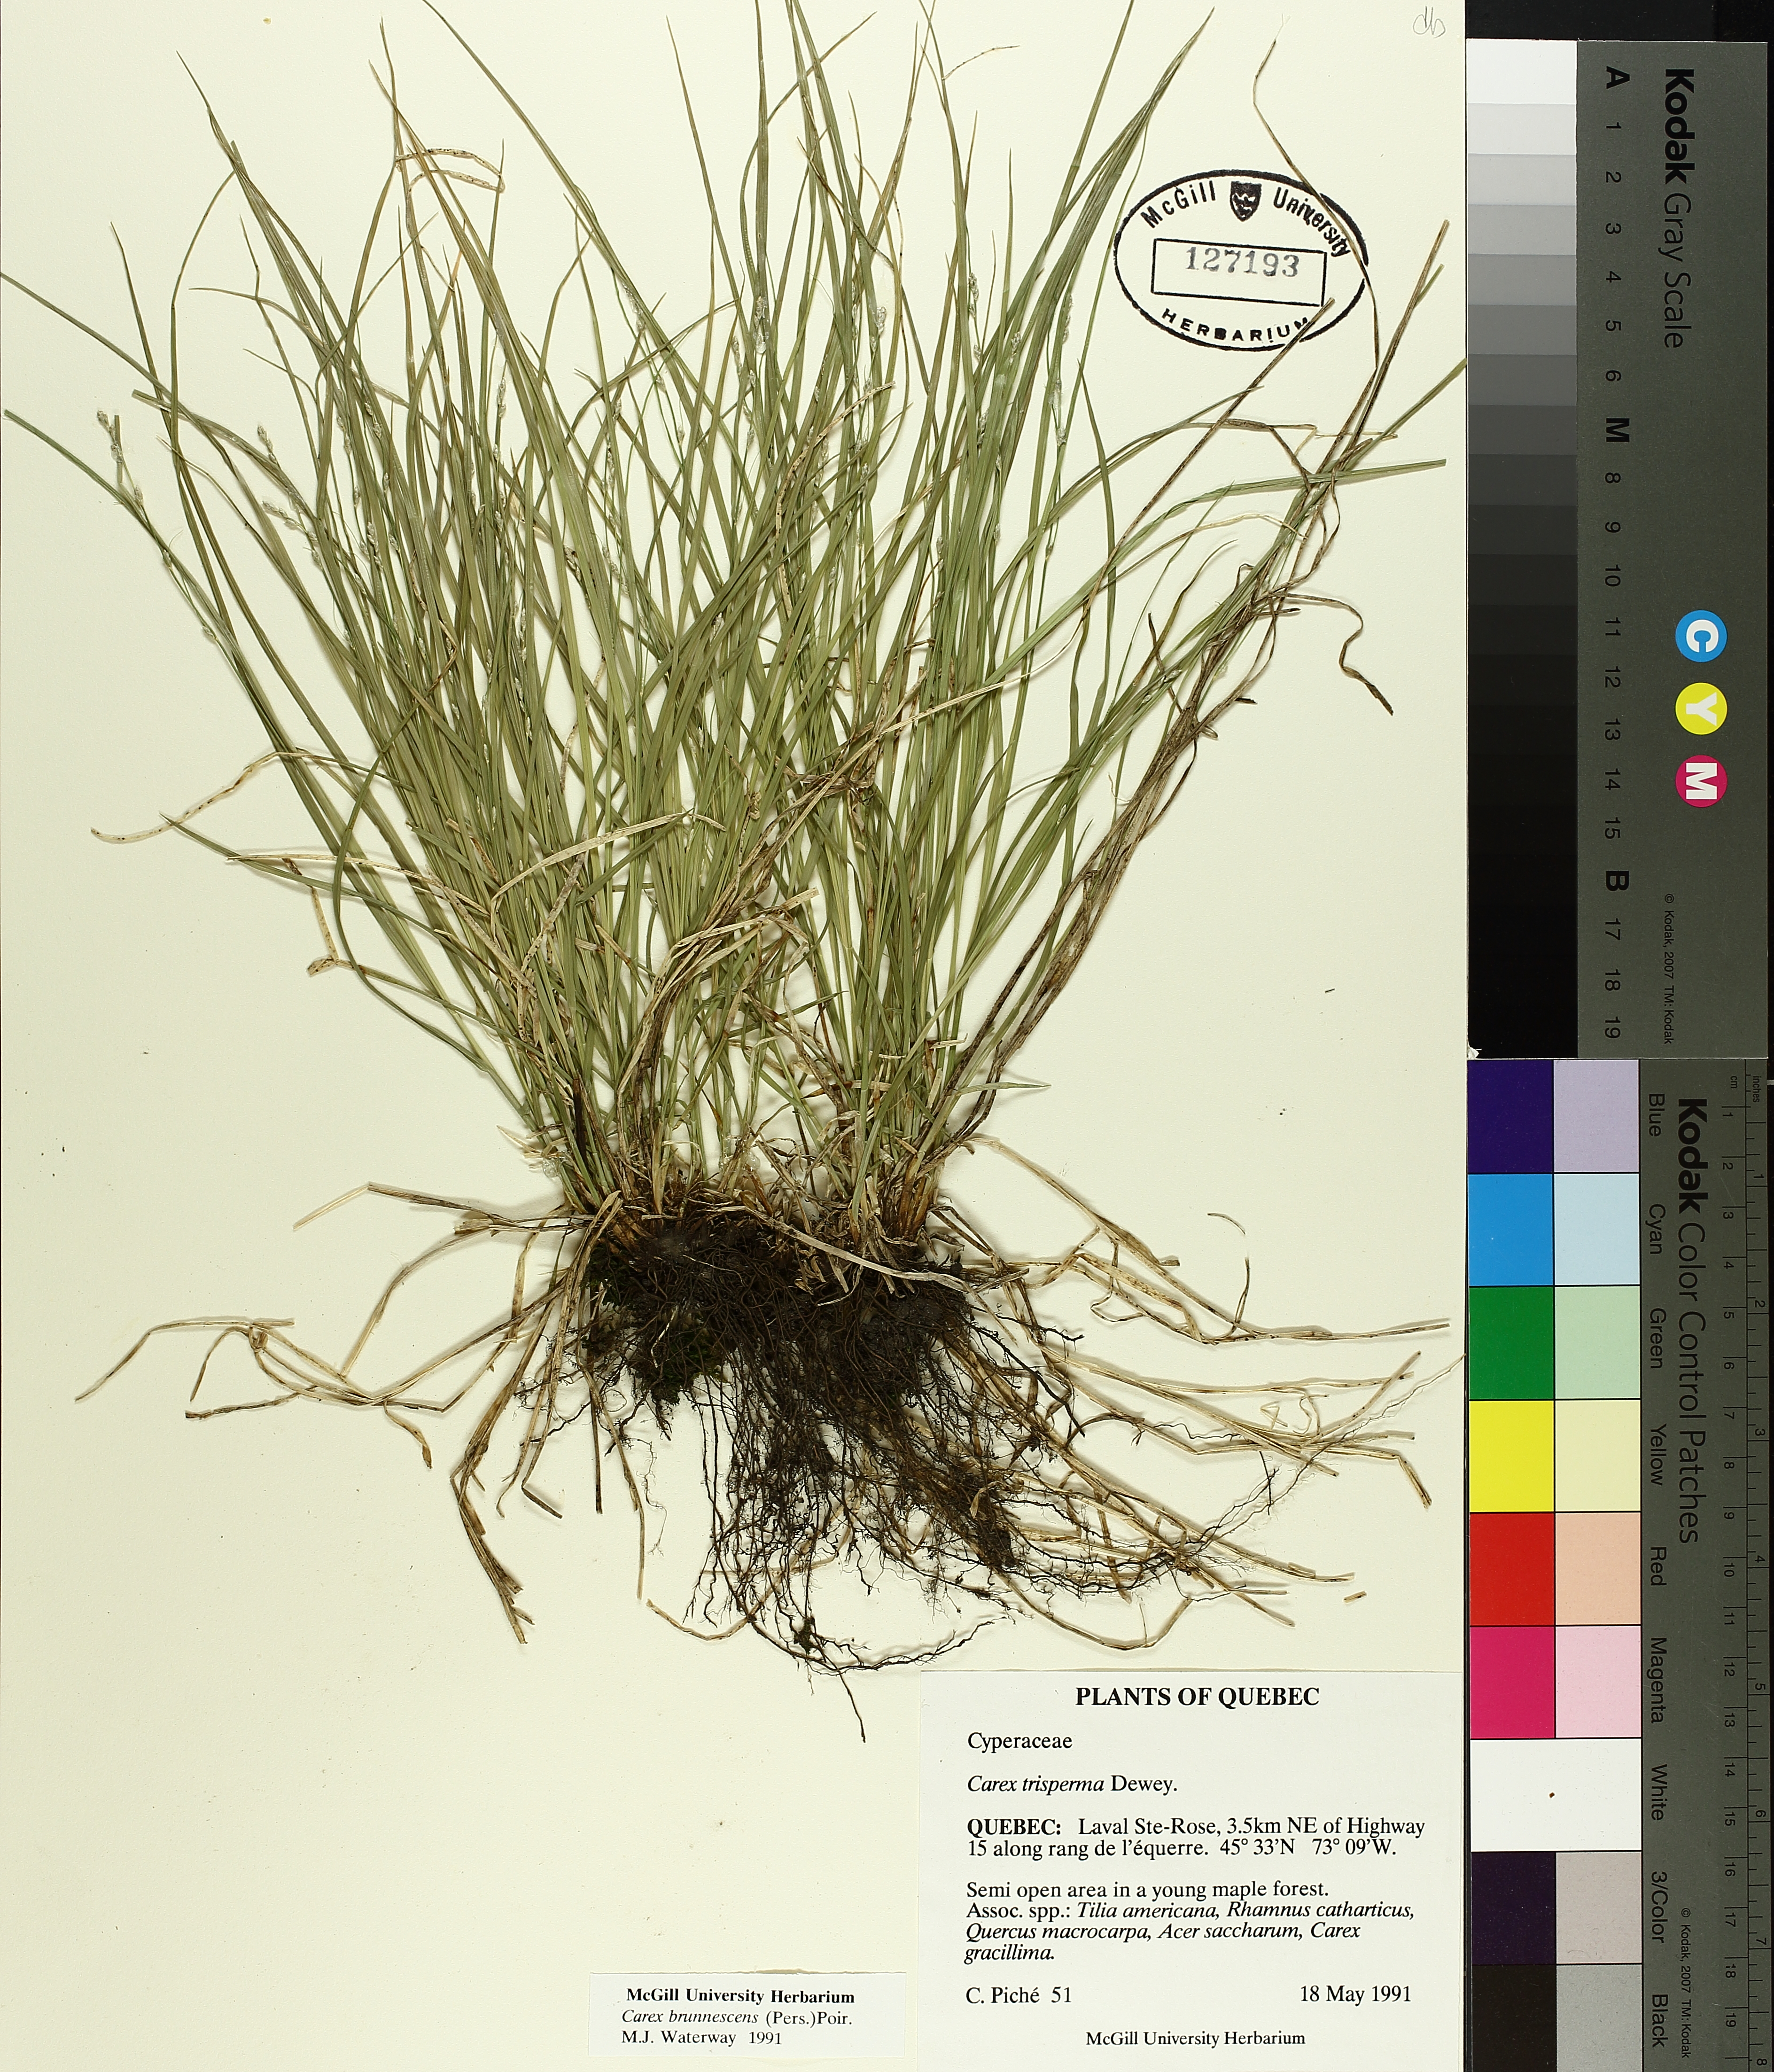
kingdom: Plantae
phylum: Tracheophyta
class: Liliopsida
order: Poales
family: Cyperaceae
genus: Carex
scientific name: Carex brunnescens
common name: Brown sedge
